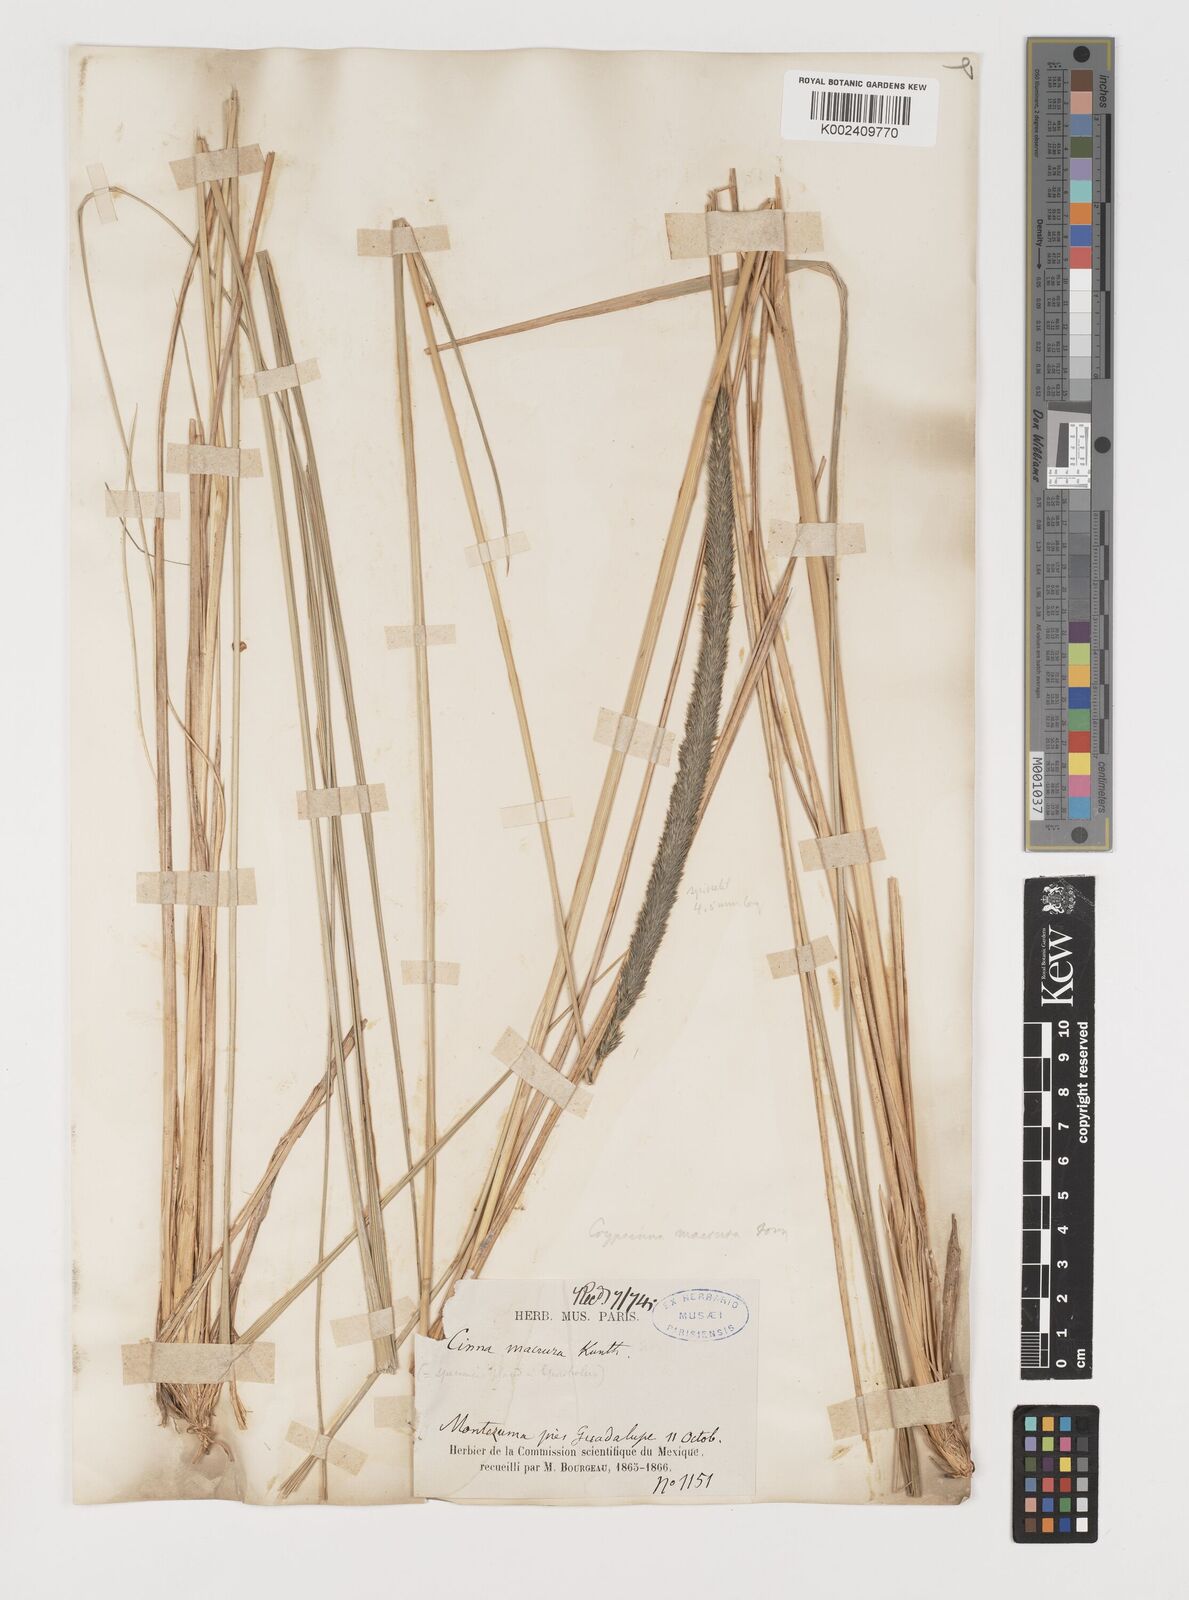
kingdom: Plantae
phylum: Tracheophyta
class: Liliopsida
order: Poales
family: Poaceae
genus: Muhlenbergia
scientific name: Muhlenbergia macroura
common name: Mexican broomroot
